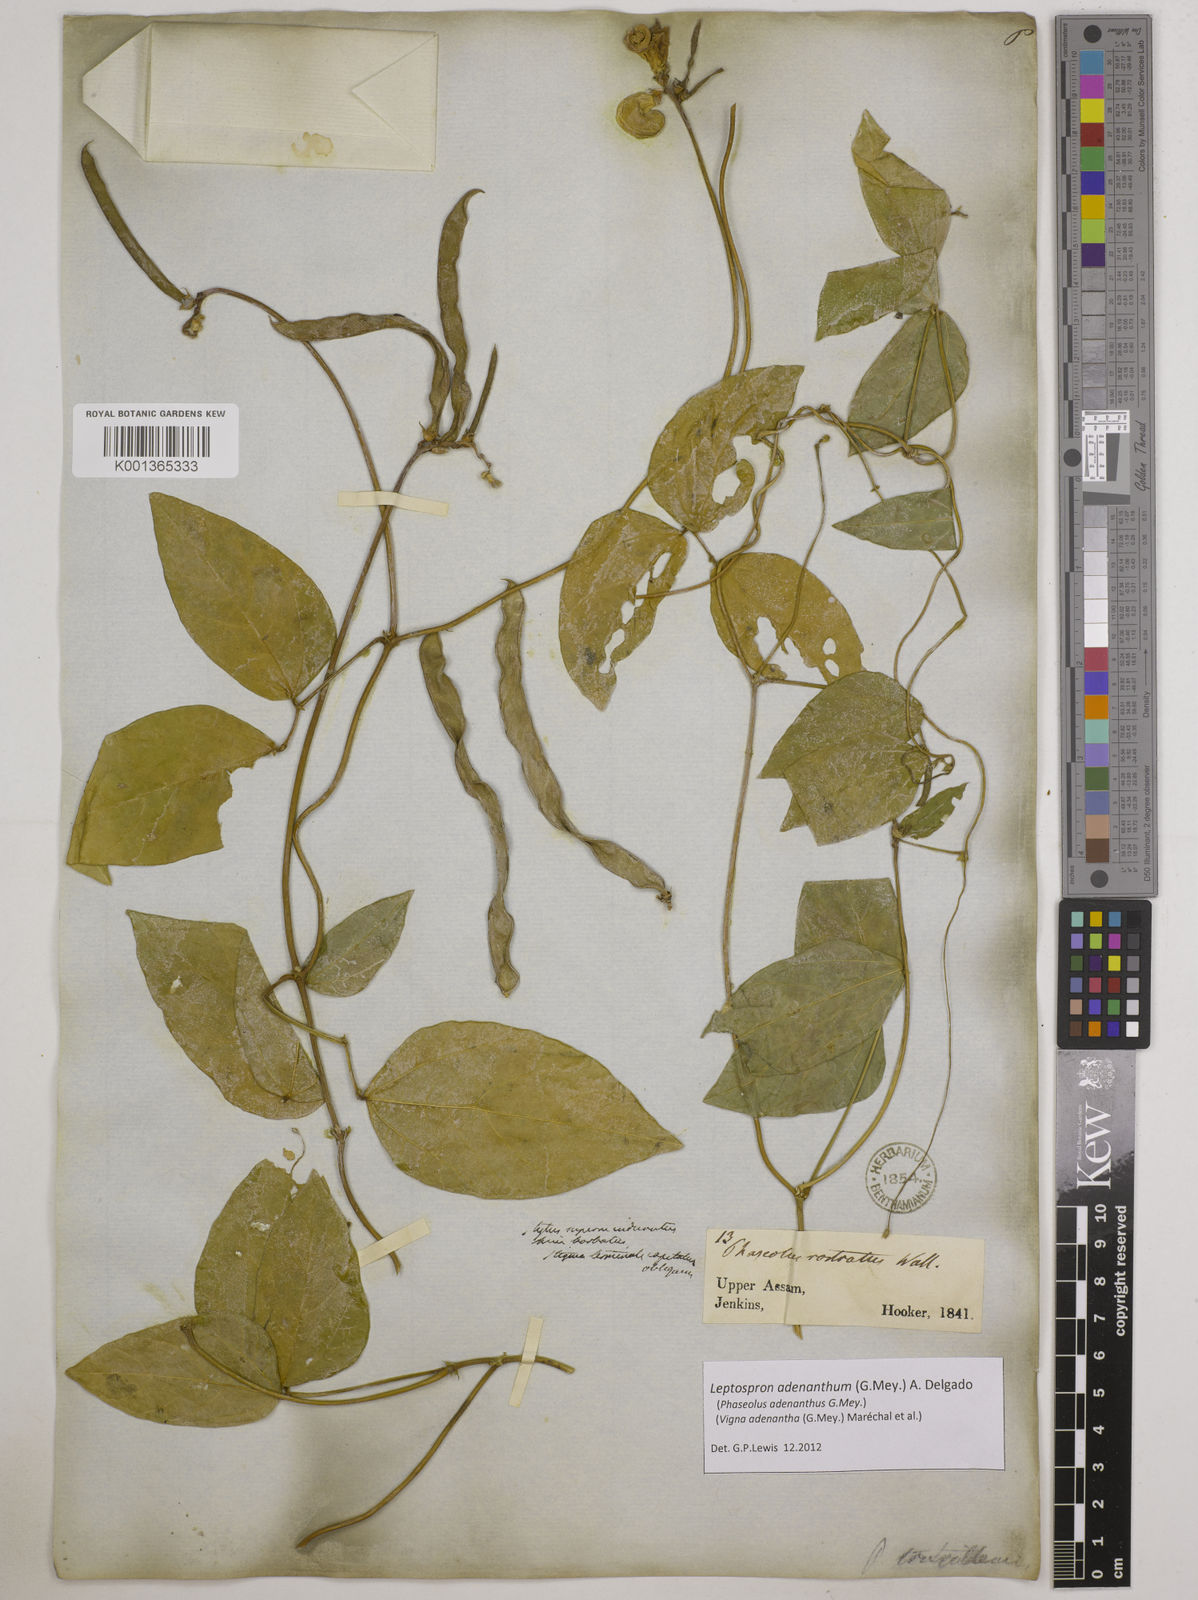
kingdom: Plantae
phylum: Tracheophyta
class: Magnoliopsida
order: Fabales
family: Fabaceae
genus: Leptospron
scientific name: Leptospron adenanthum
